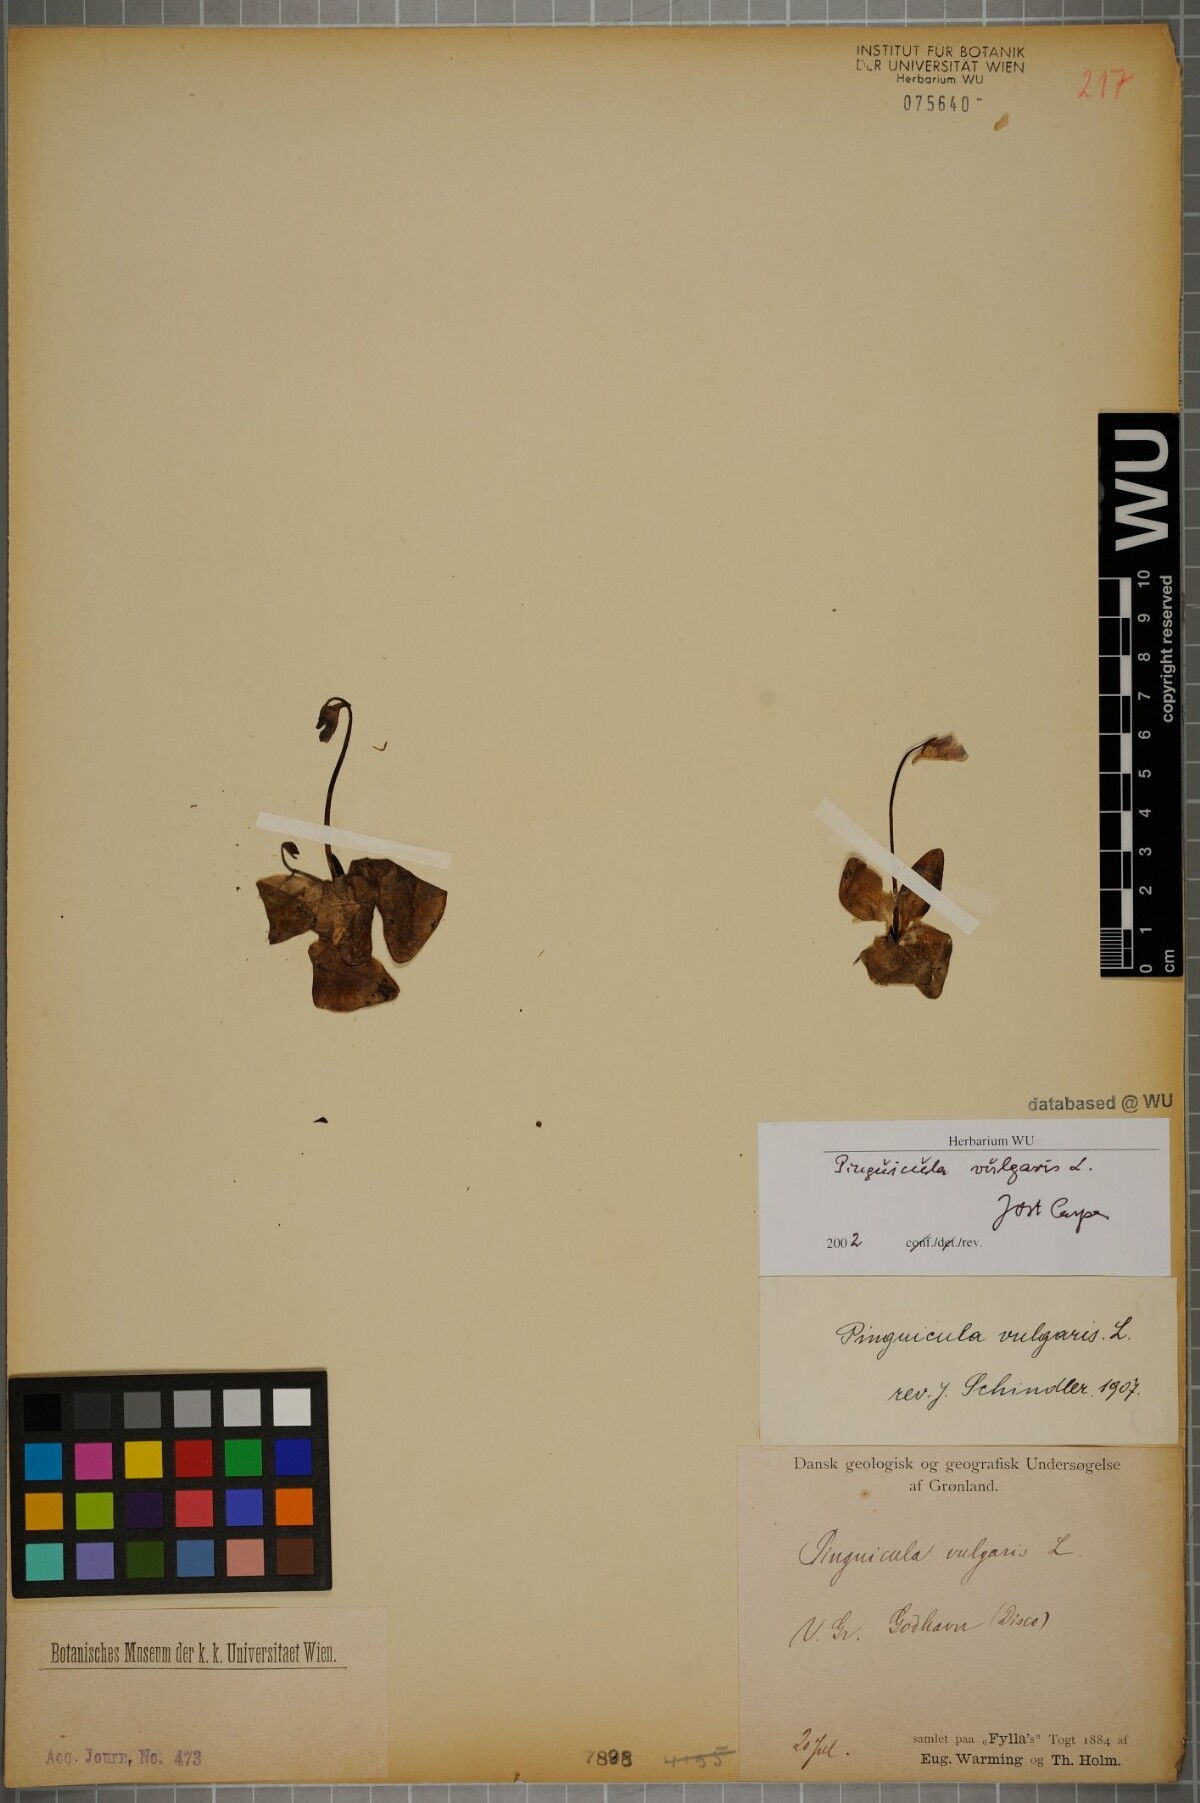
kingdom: Plantae
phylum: Tracheophyta
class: Magnoliopsida
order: Lamiales
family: Lentibulariaceae
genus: Pinguicula
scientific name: Pinguicula vulgaris
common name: Common butterwort
